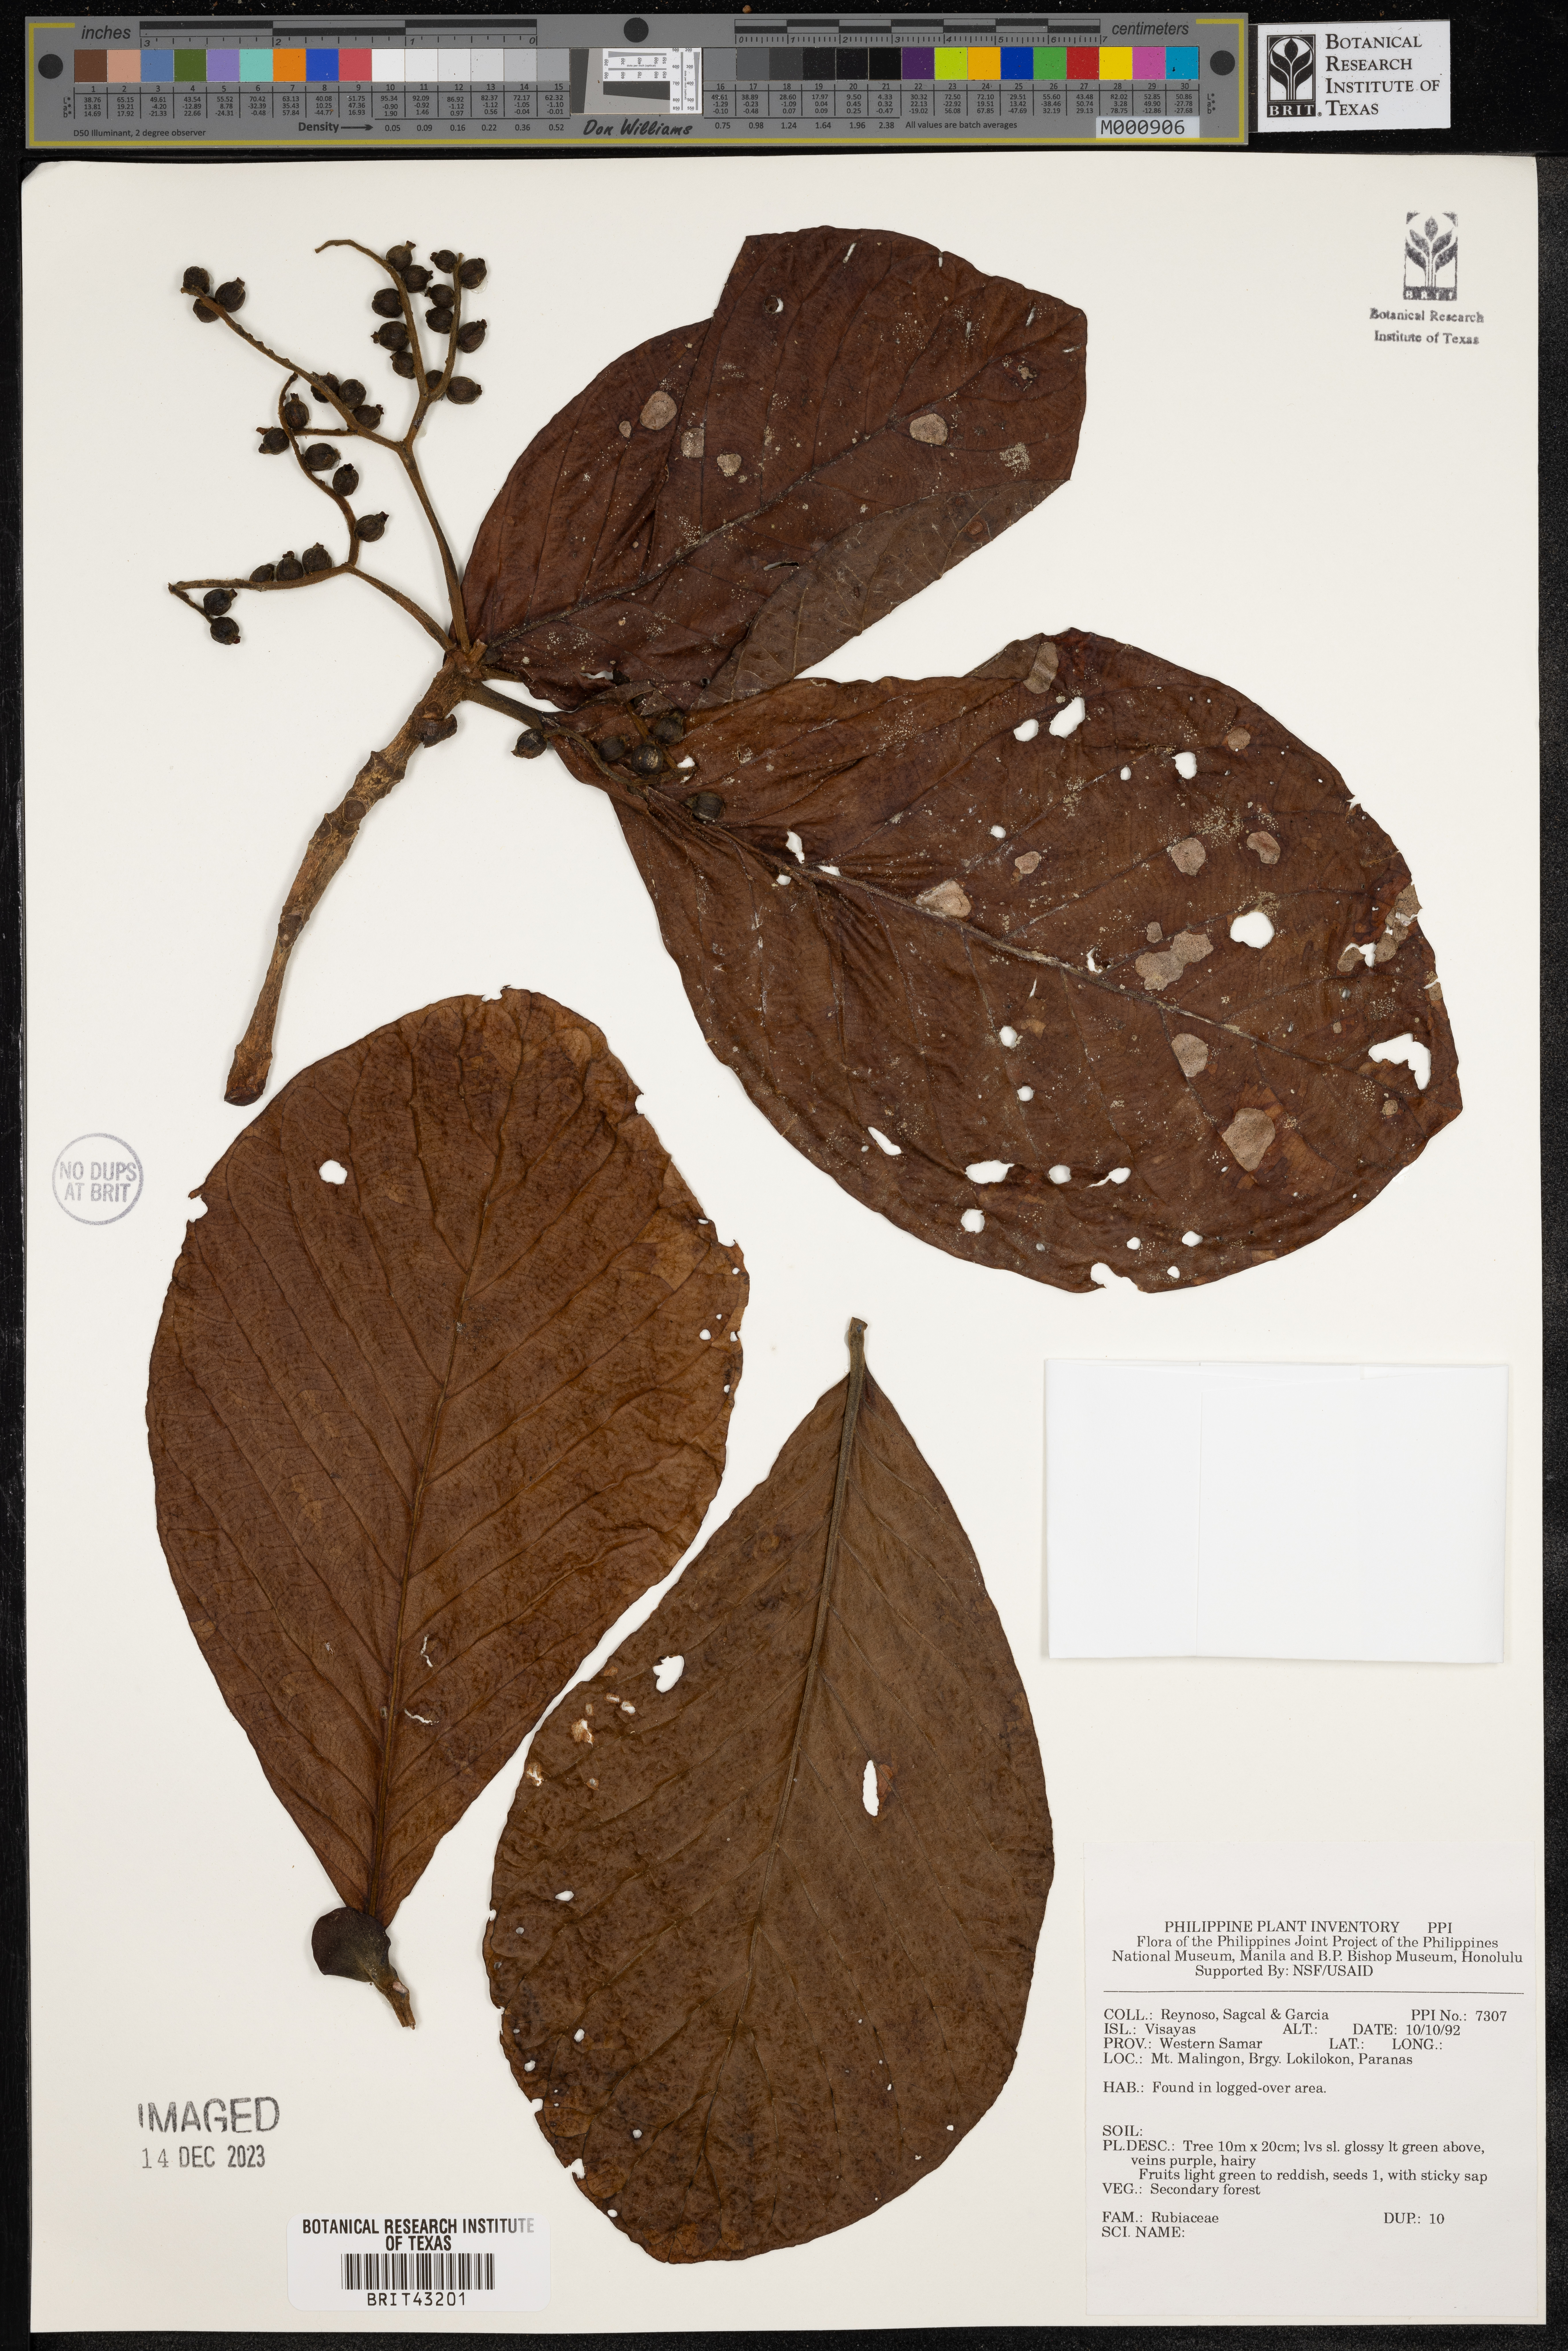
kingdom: Plantae
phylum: Tracheophyta
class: Magnoliopsida
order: Gentianales
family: Rubiaceae
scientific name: Rubiaceae
